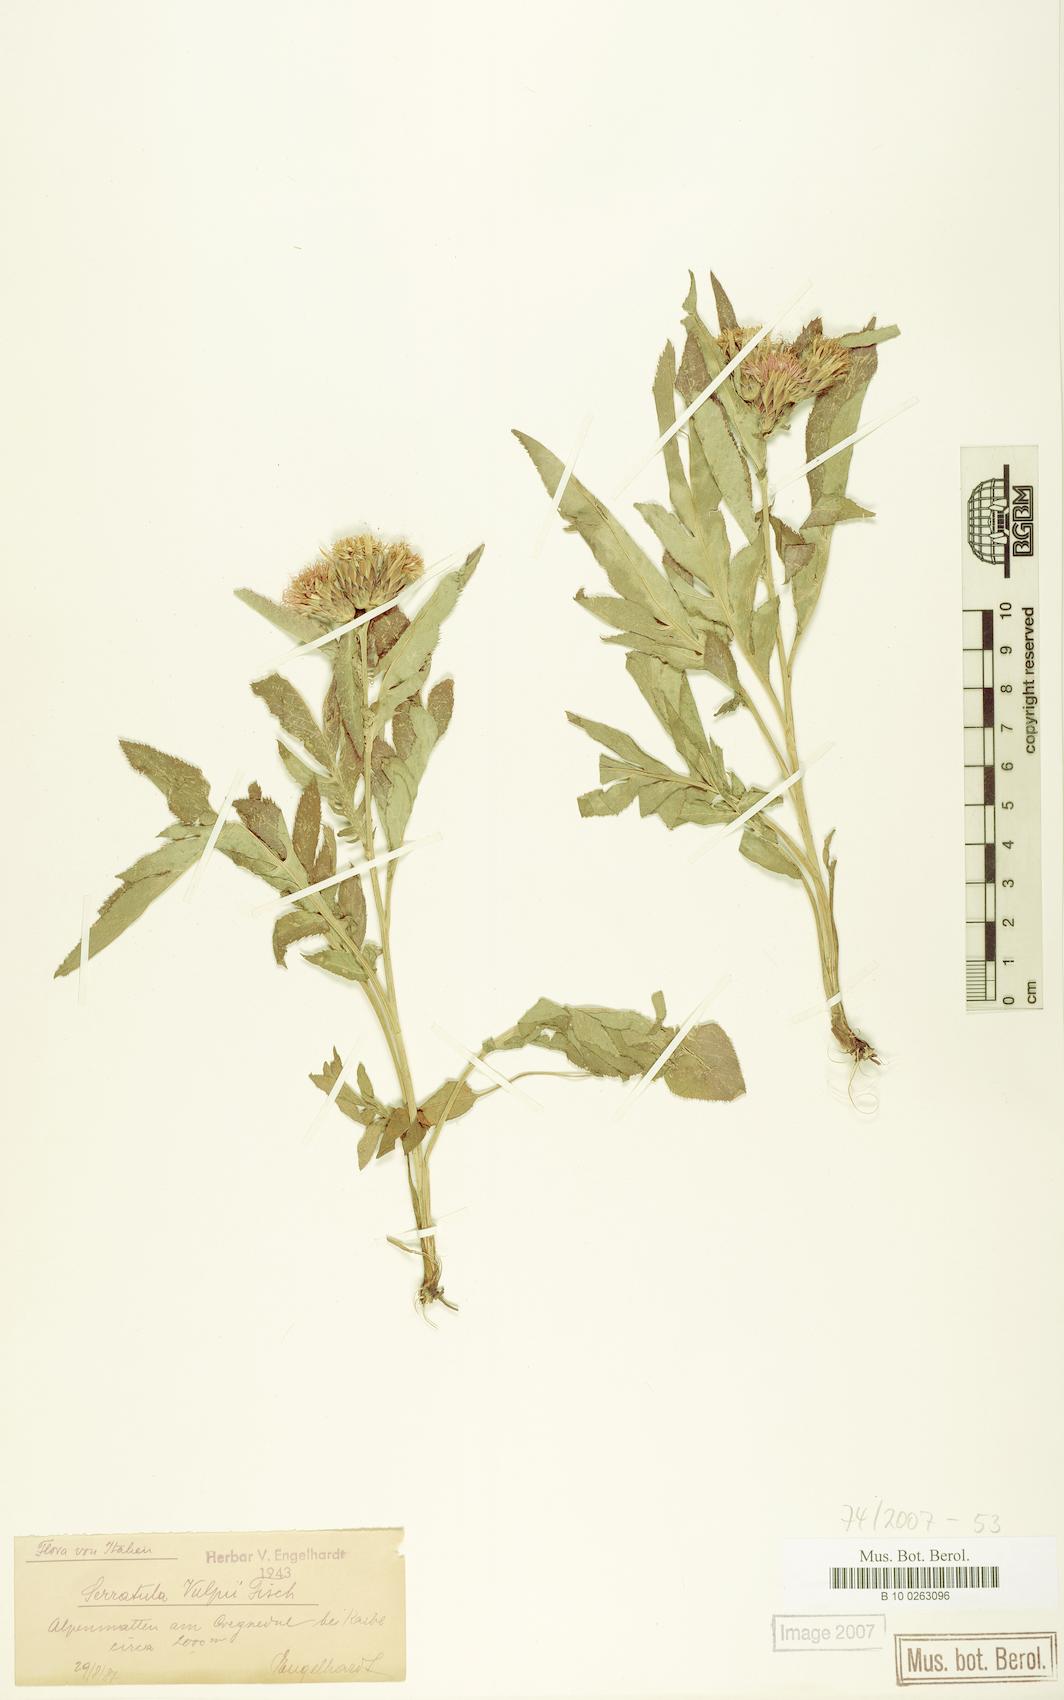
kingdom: Plantae
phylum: Tracheophyta
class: Magnoliopsida
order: Asterales
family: Asteraceae
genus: Serratula
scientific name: Serratula tinctoria
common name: Saw-wort
